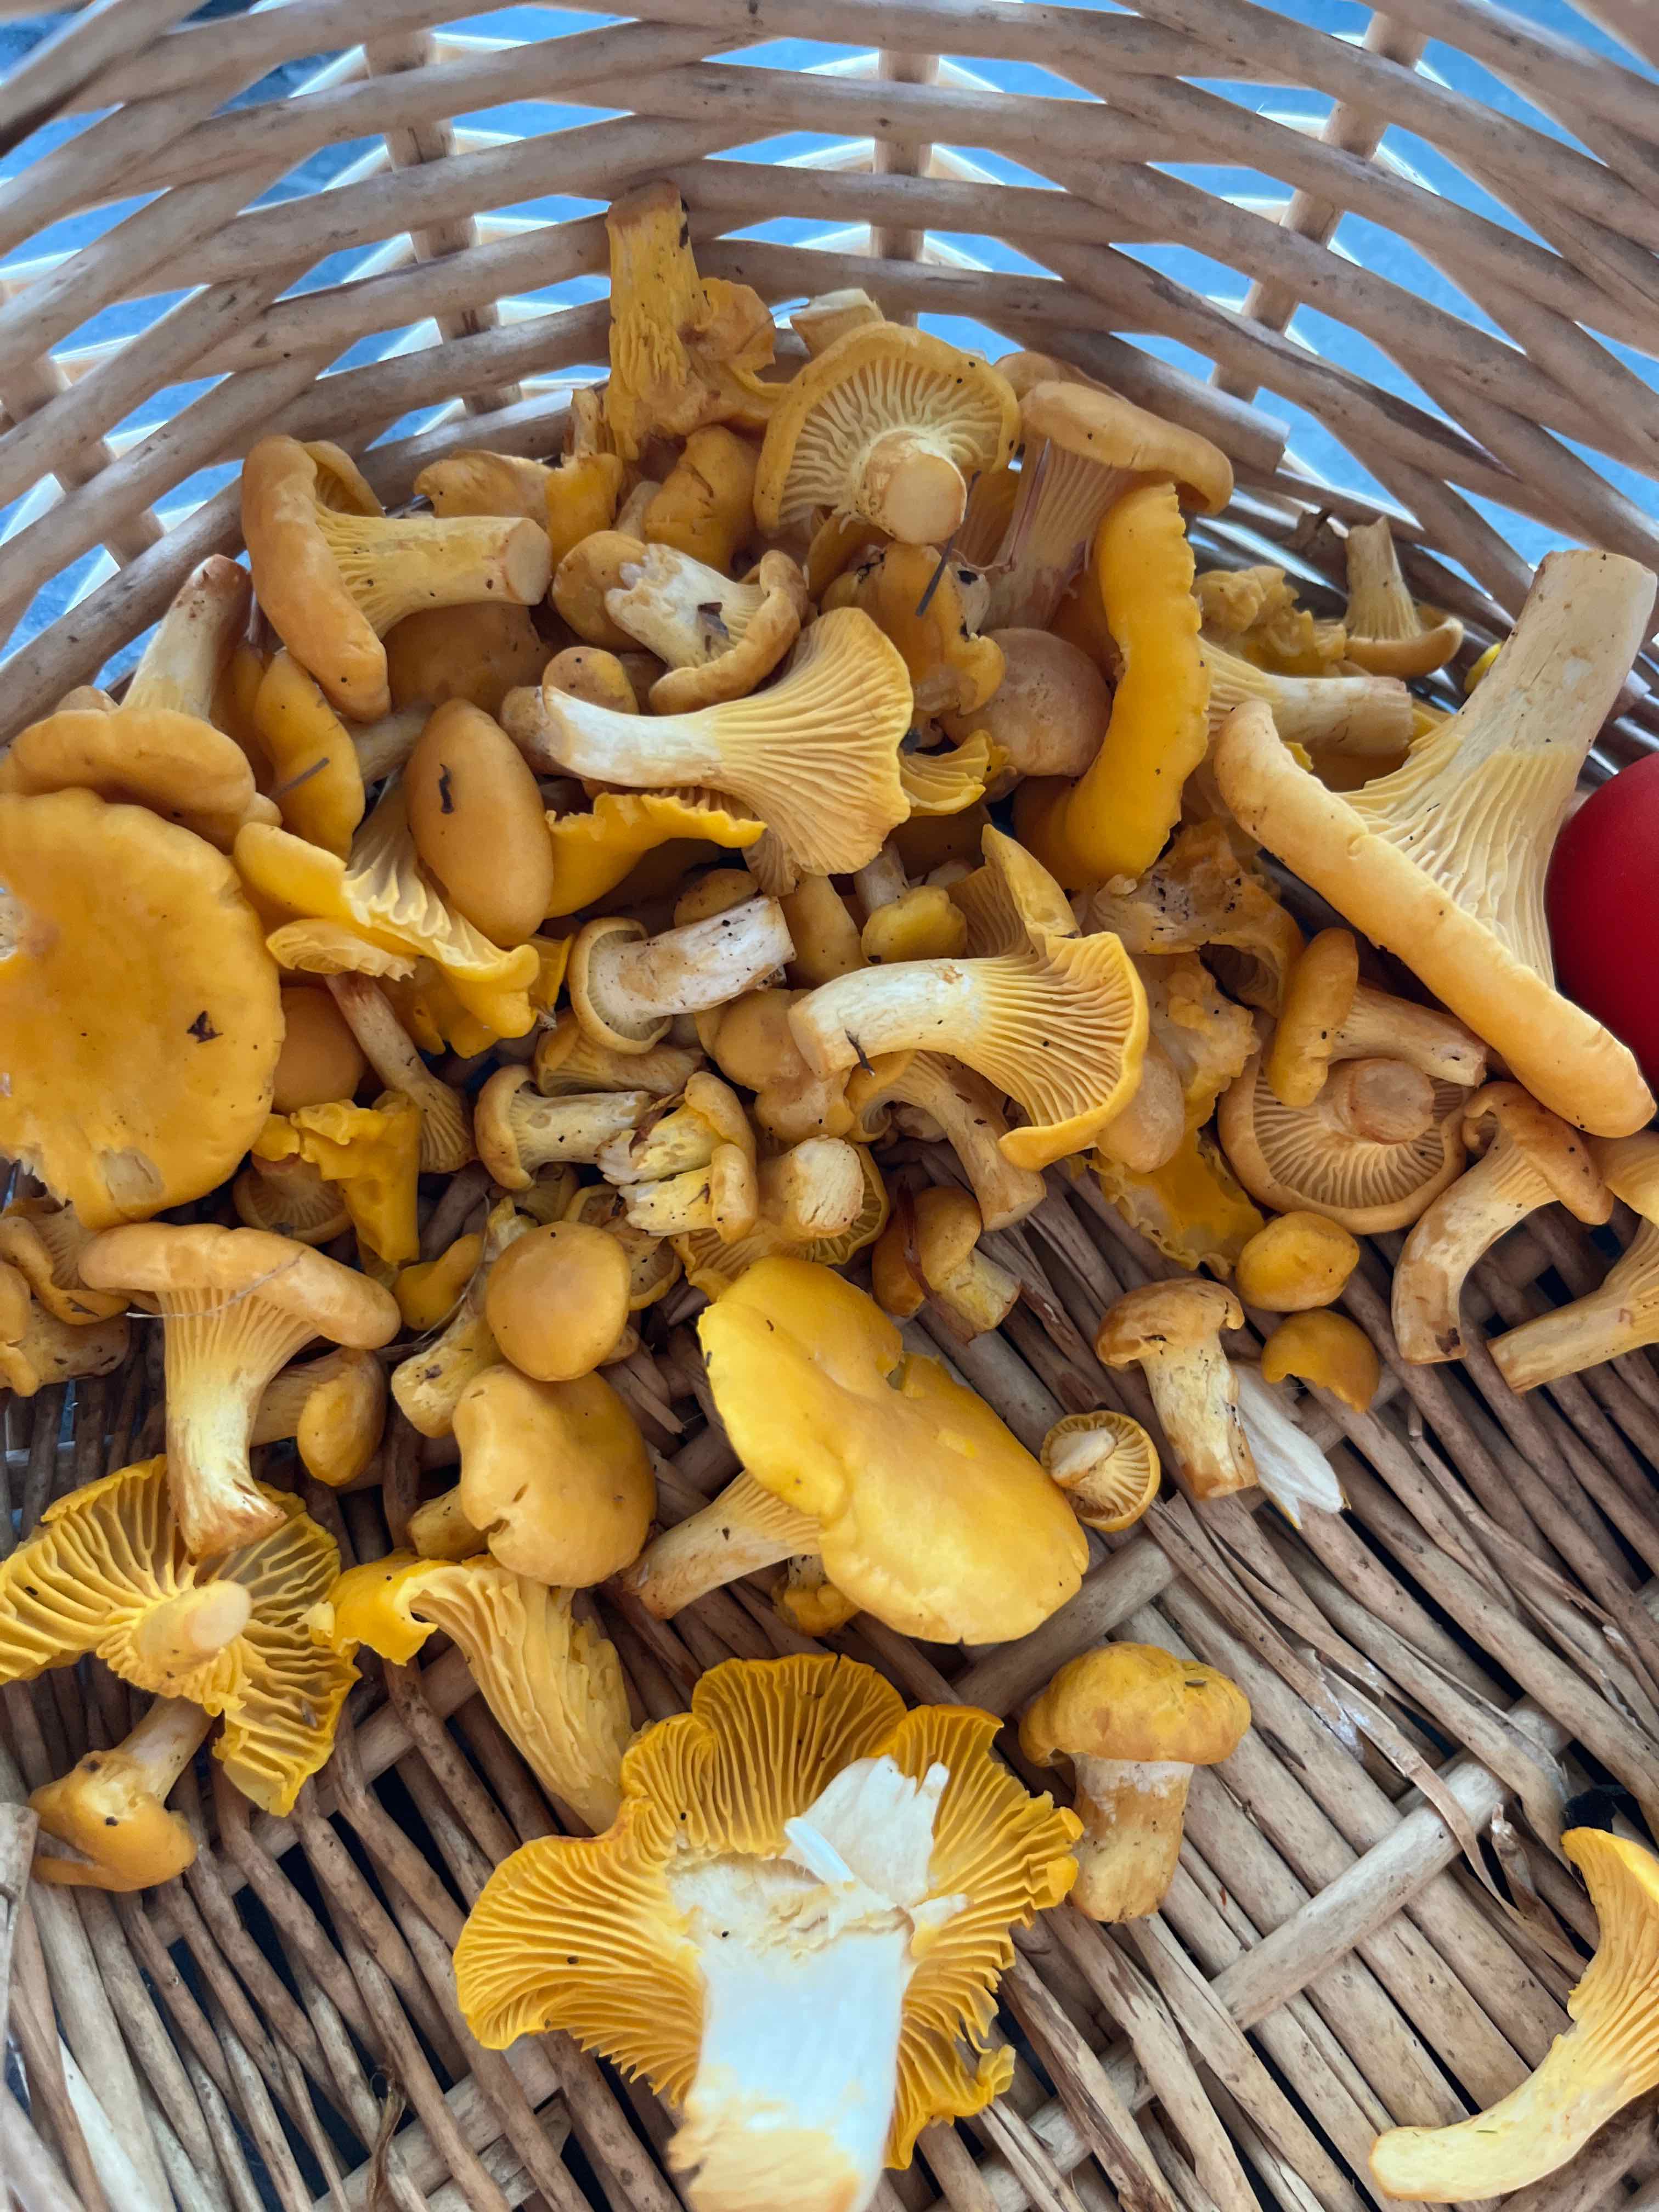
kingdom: Fungi
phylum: Basidiomycota
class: Agaricomycetes
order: Cantharellales
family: Hydnaceae
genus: Cantharellus
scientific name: Cantharellus cibarius
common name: almindelig kantarel
